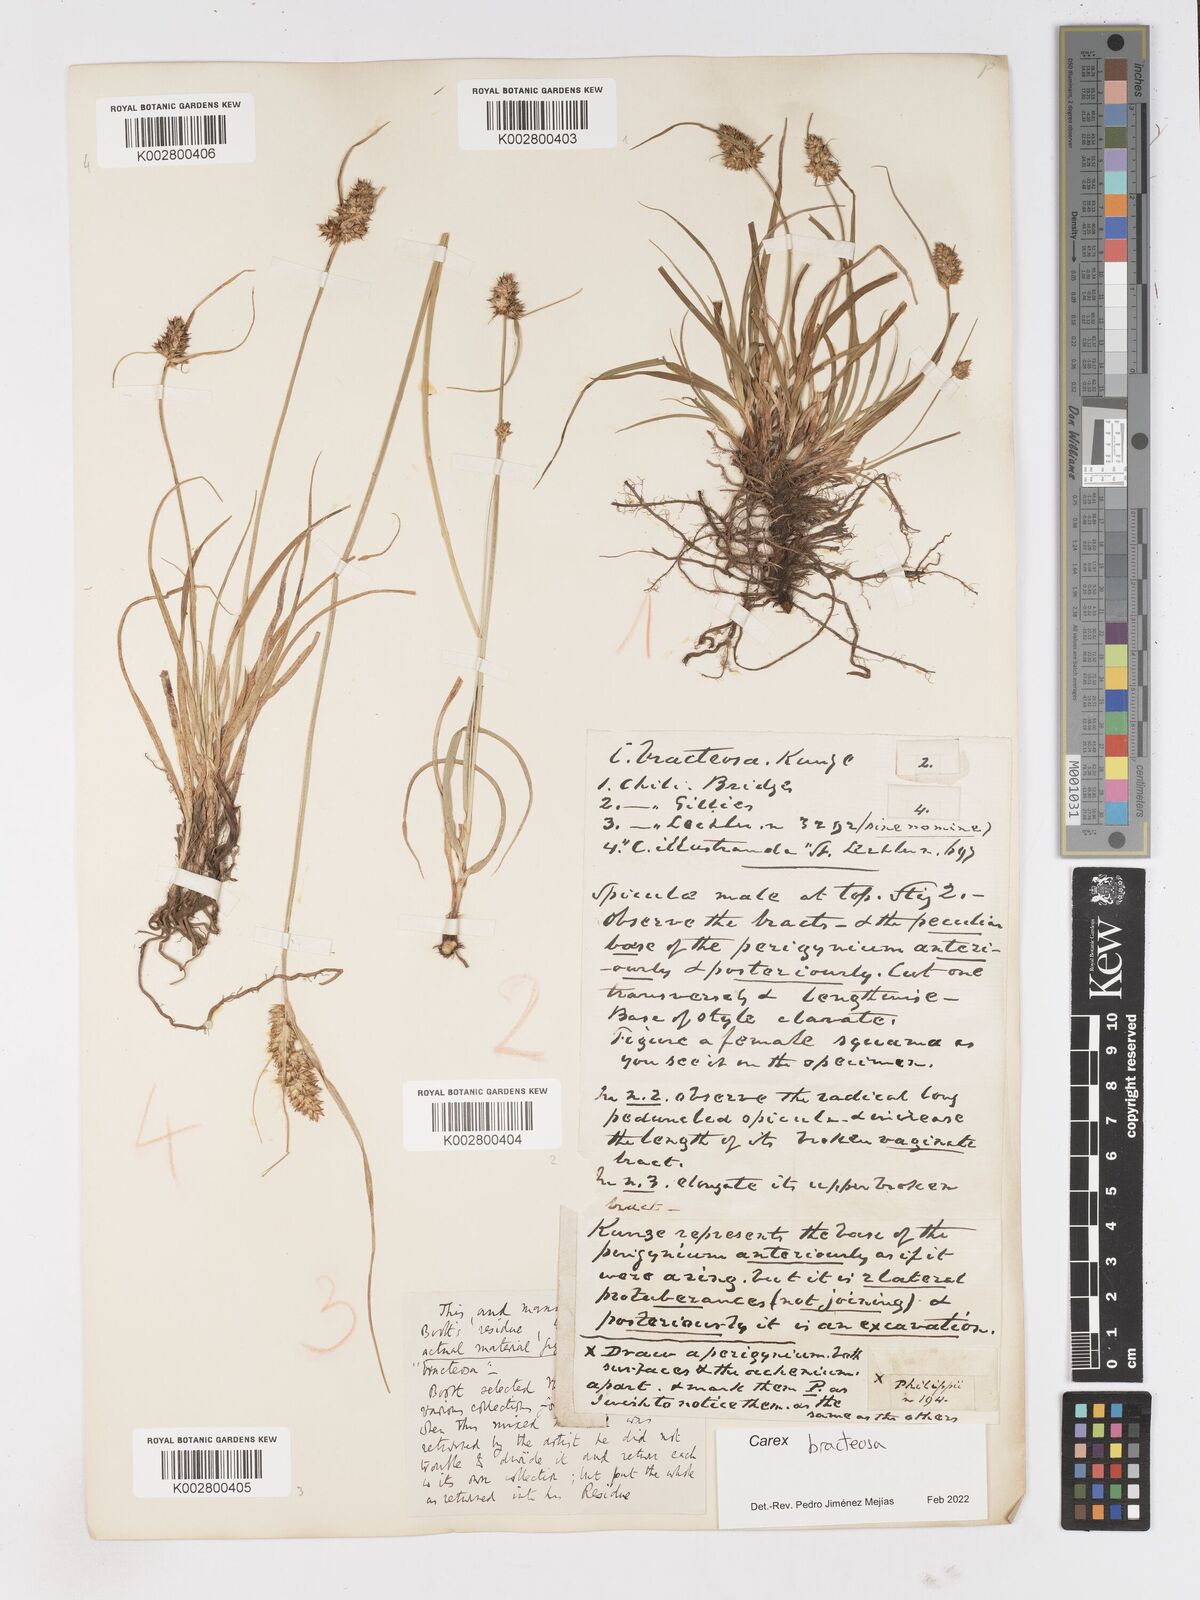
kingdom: Plantae
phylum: Tracheophyta
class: Liliopsida
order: Poales
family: Cyperaceae
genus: Carex
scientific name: Carex bracteosa
